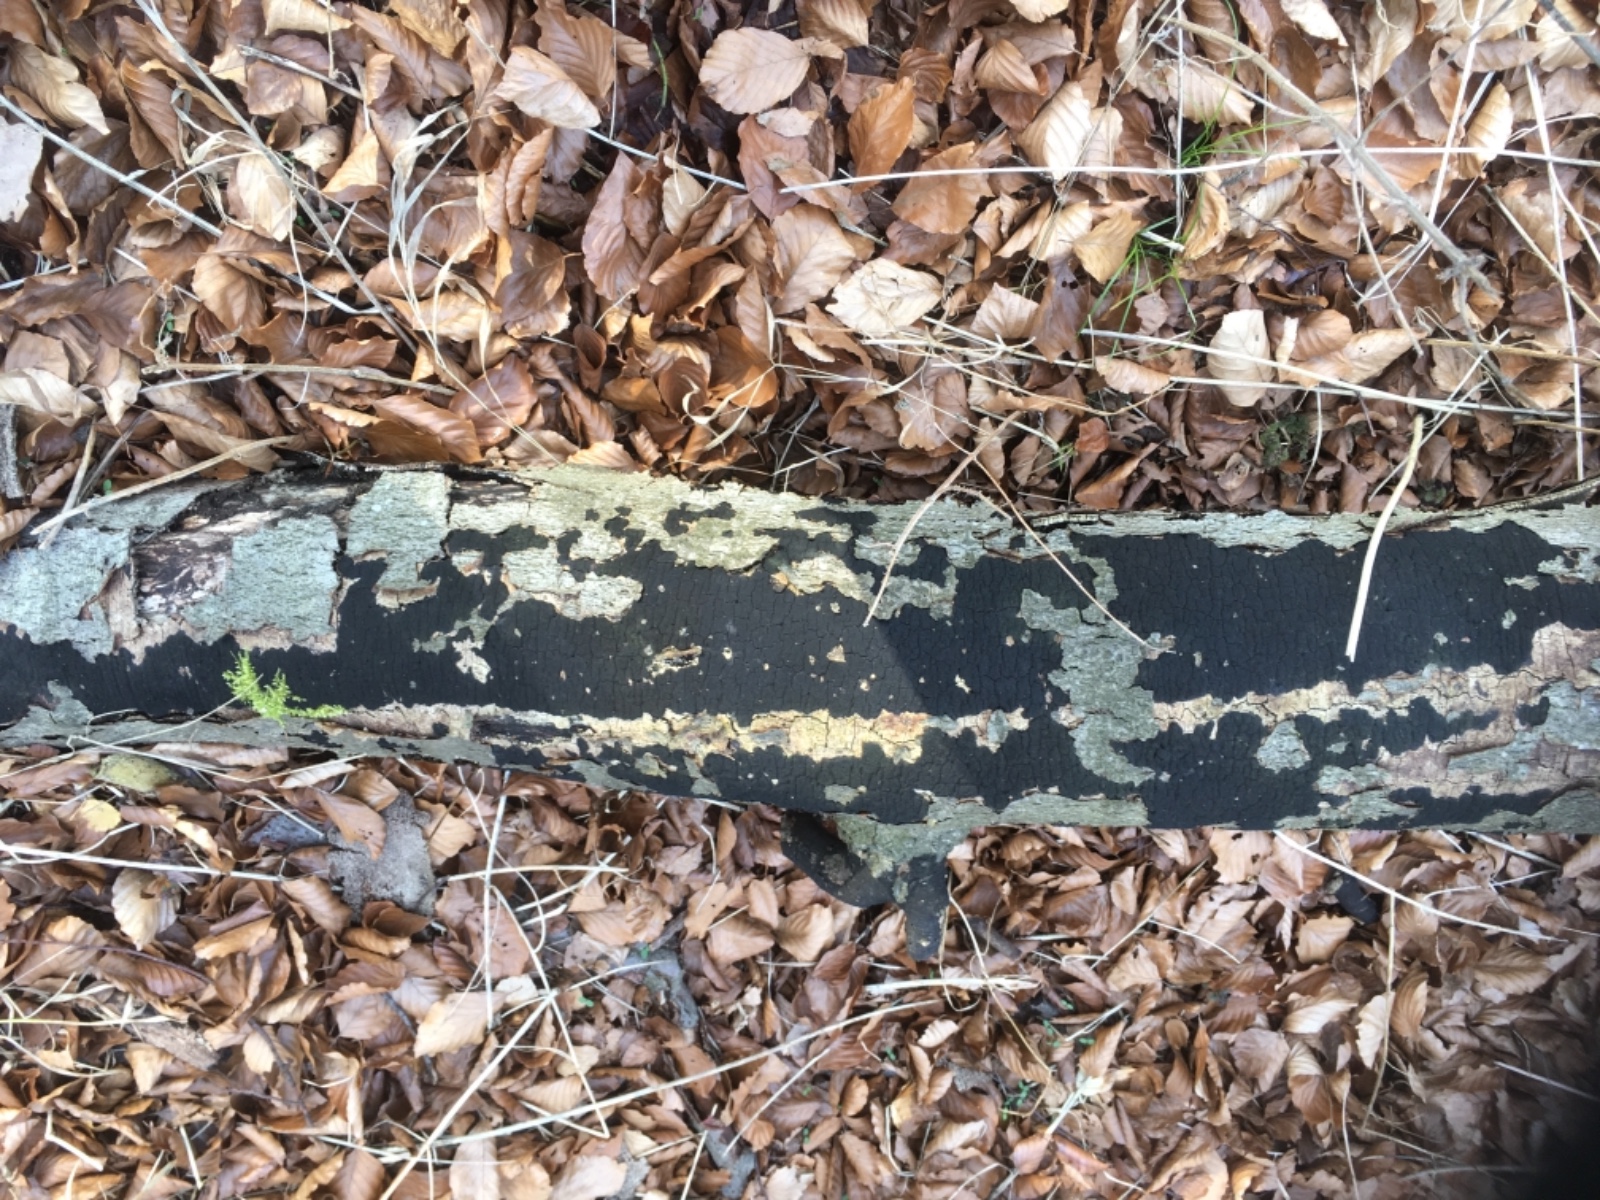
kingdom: Fungi
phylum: Ascomycota
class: Sordariomycetes
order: Xylariales
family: Diatrypaceae
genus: Eutypa
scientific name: Eutypa spinosa
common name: grov kulskorpe
